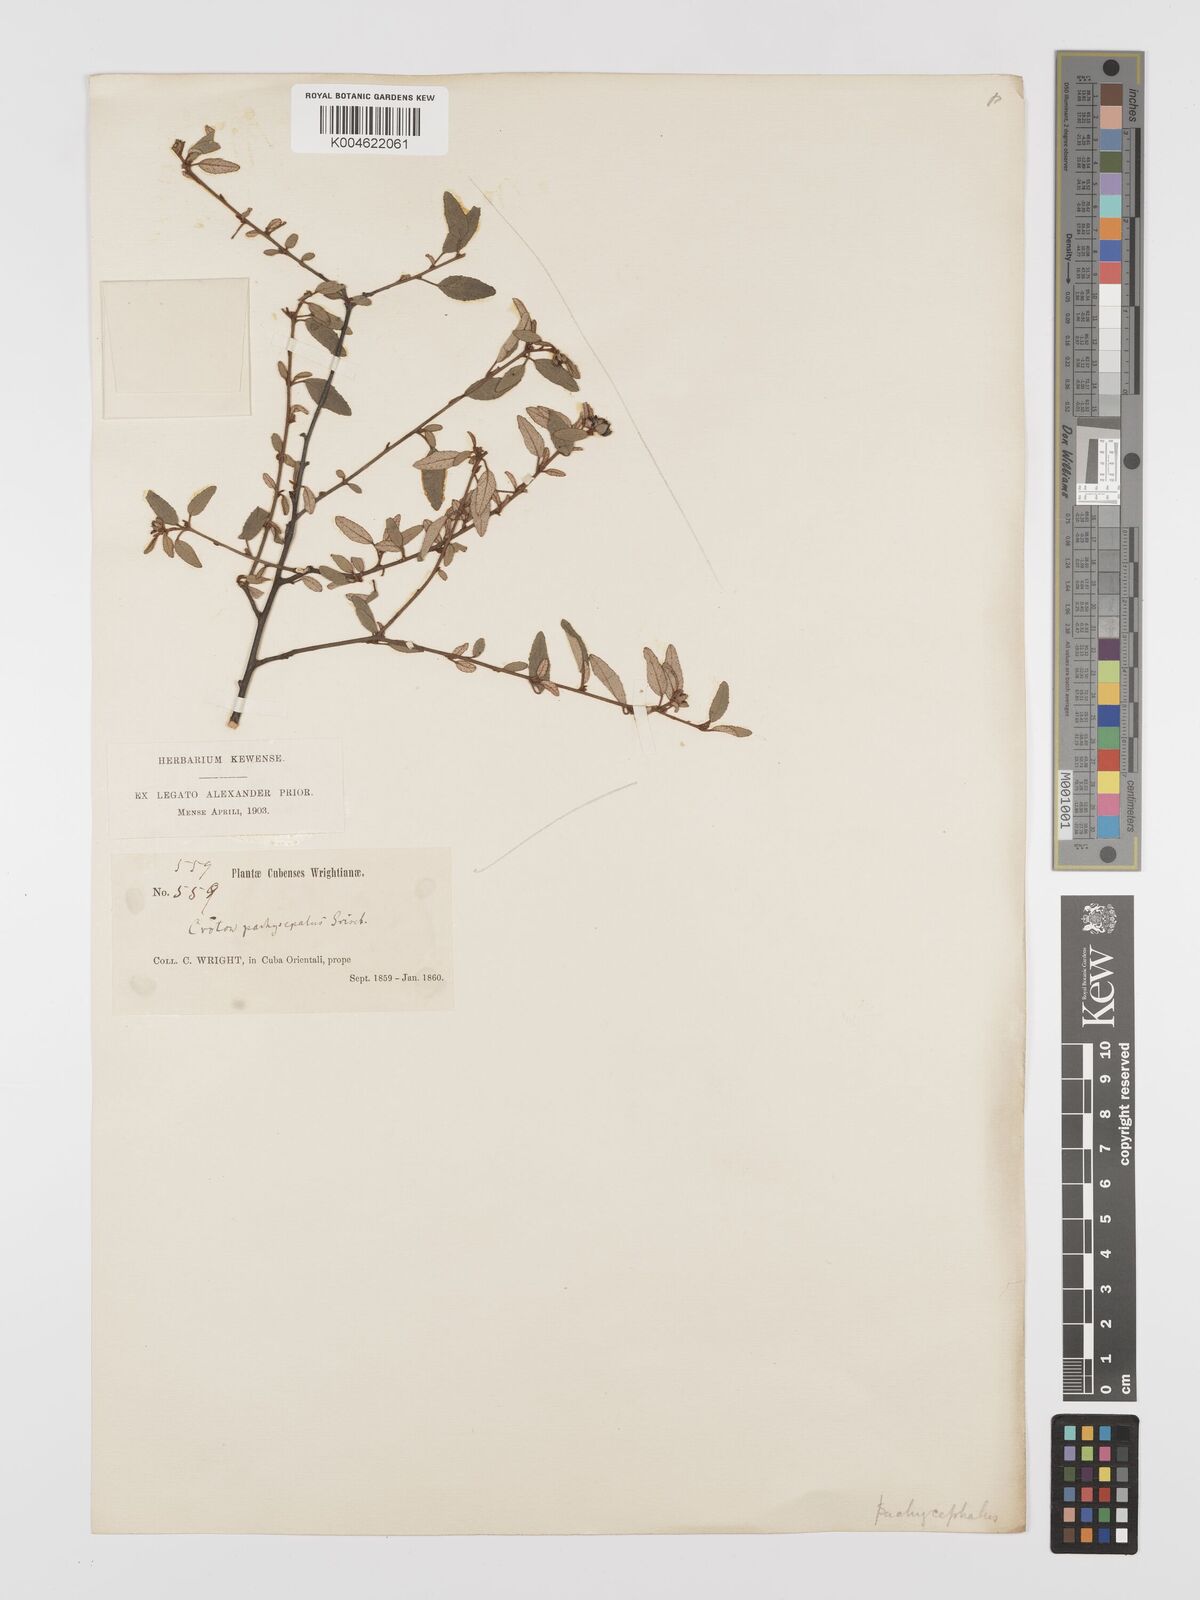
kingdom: Plantae
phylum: Tracheophyta
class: Magnoliopsida
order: Malpighiales
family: Euphorbiaceae
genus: Croton
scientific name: Croton pachysepalus
